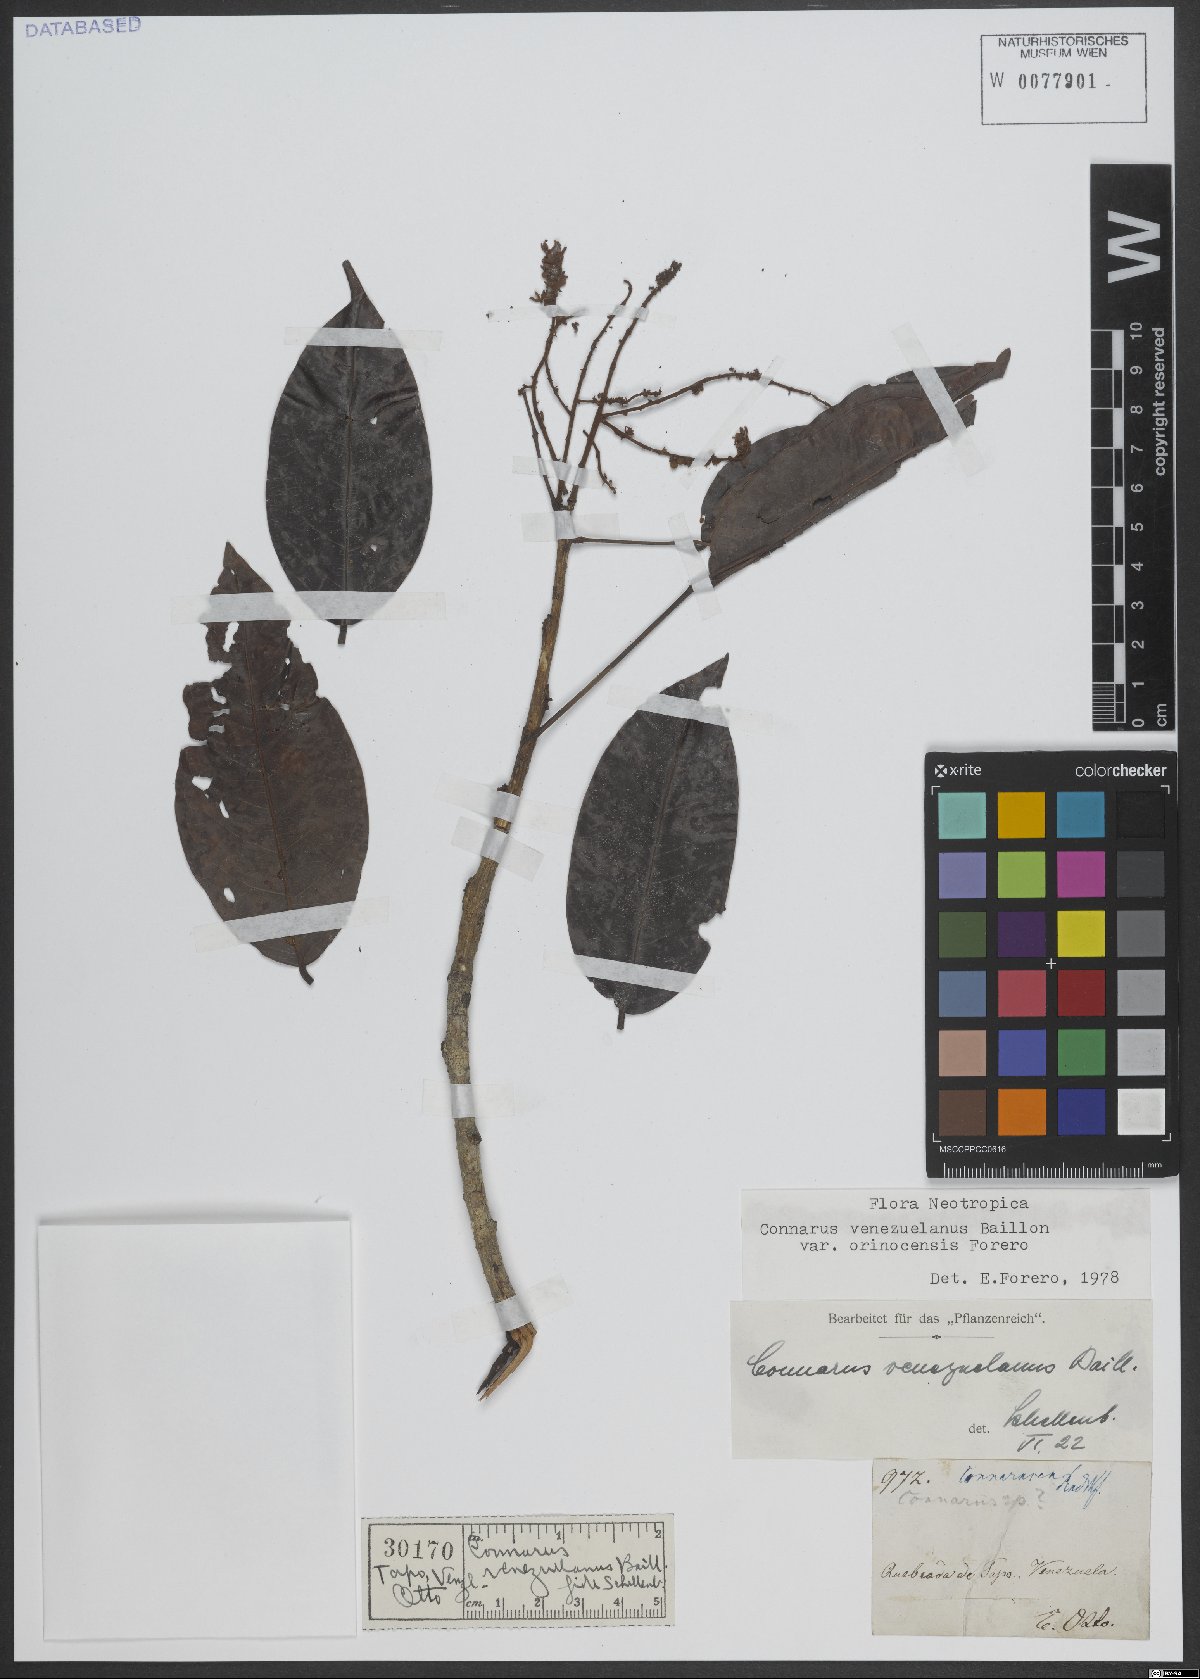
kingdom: Plantae
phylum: Tracheophyta
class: Magnoliopsida
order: Oxalidales
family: Connaraceae
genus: Connarus
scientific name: Connarus venezuelanus
